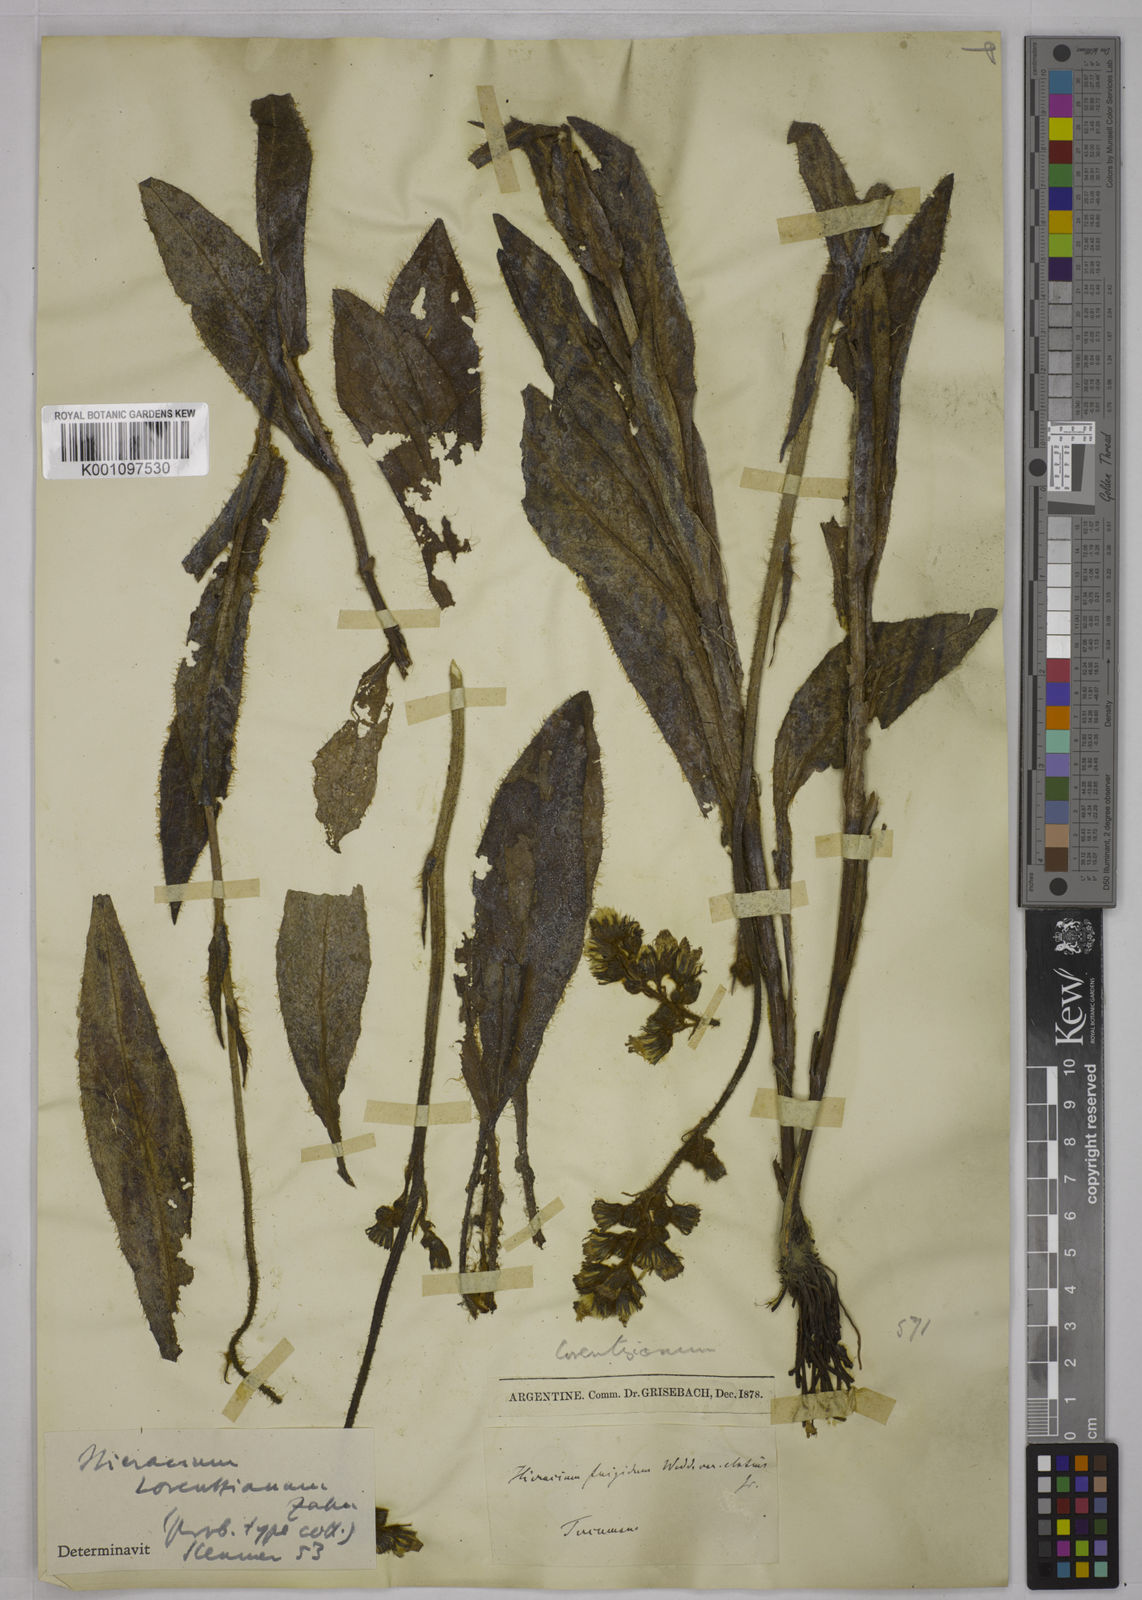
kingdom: Plantae
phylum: Tracheophyta
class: Magnoliopsida
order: Asterales
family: Asteraceae
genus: Hieracium
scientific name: Hieracium jubatum
